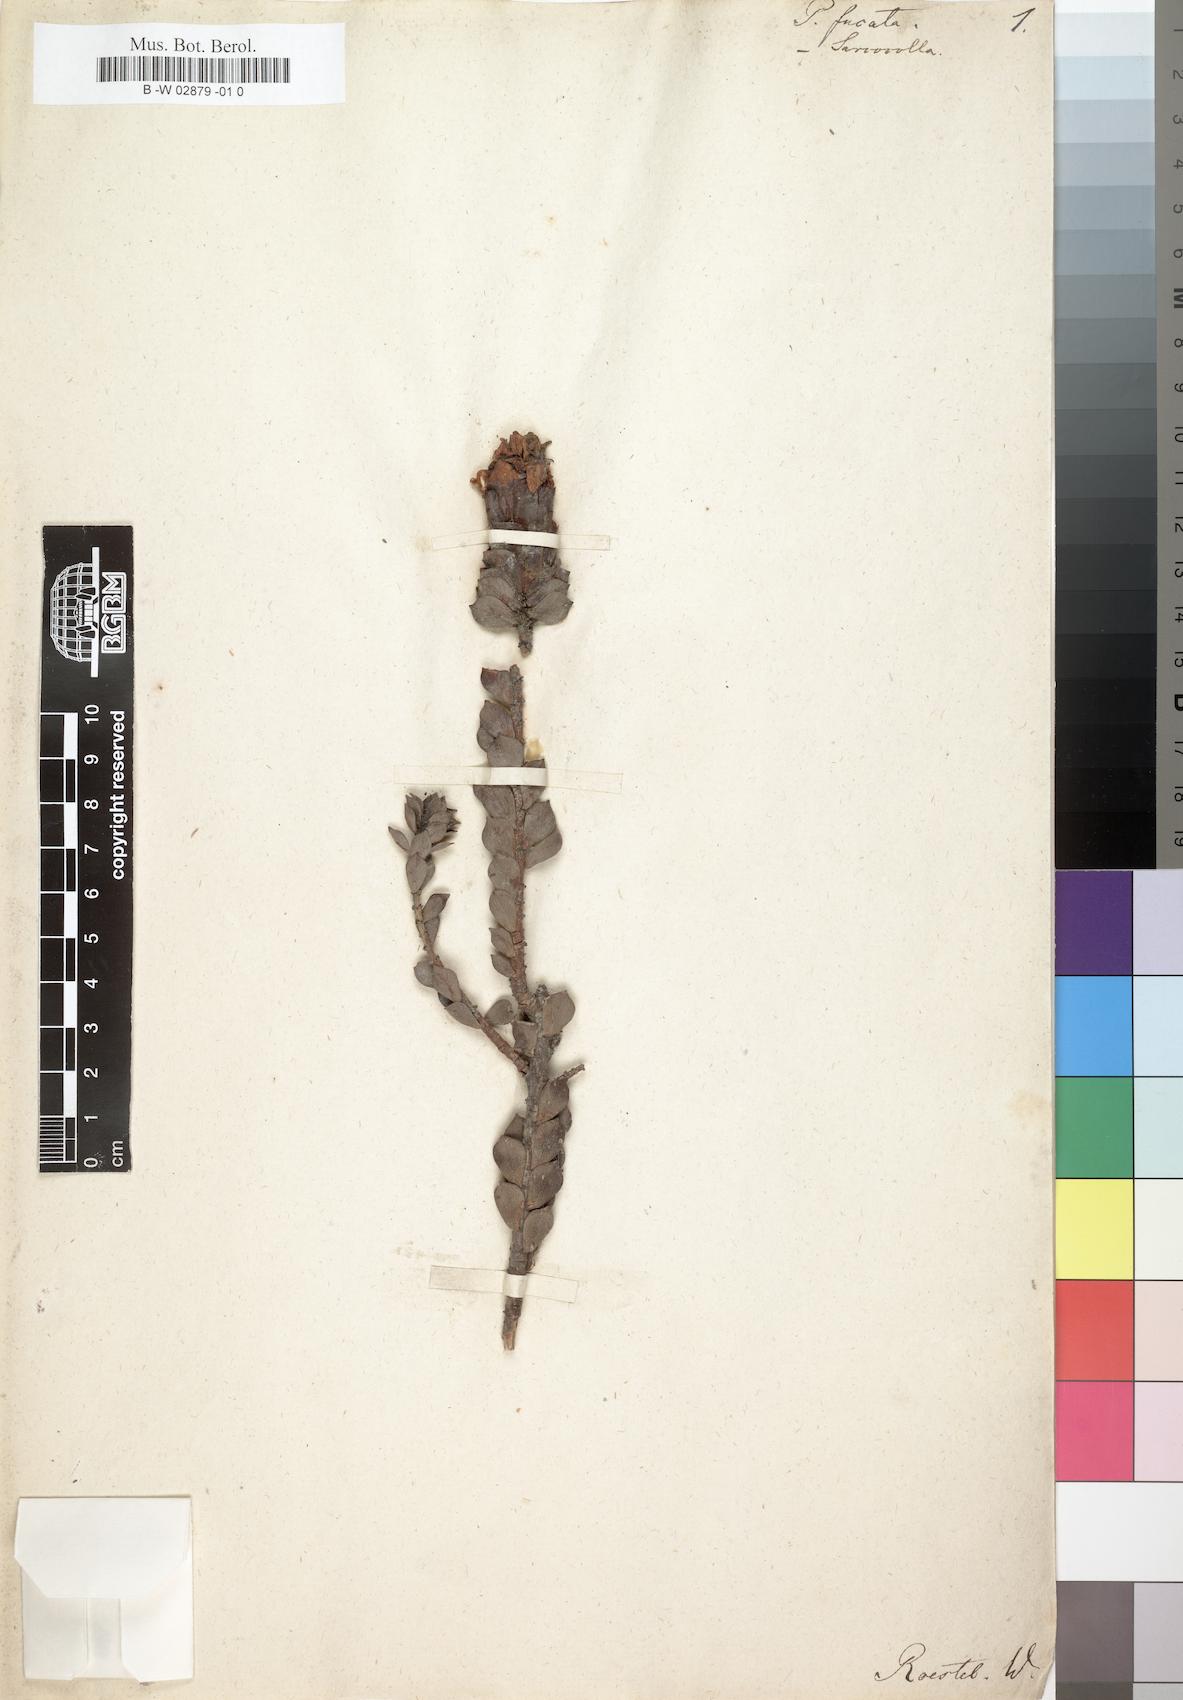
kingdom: Plantae
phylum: Tracheophyta
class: Magnoliopsida
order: Myrtales
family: Penaeaceae
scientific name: Penaeaceae
